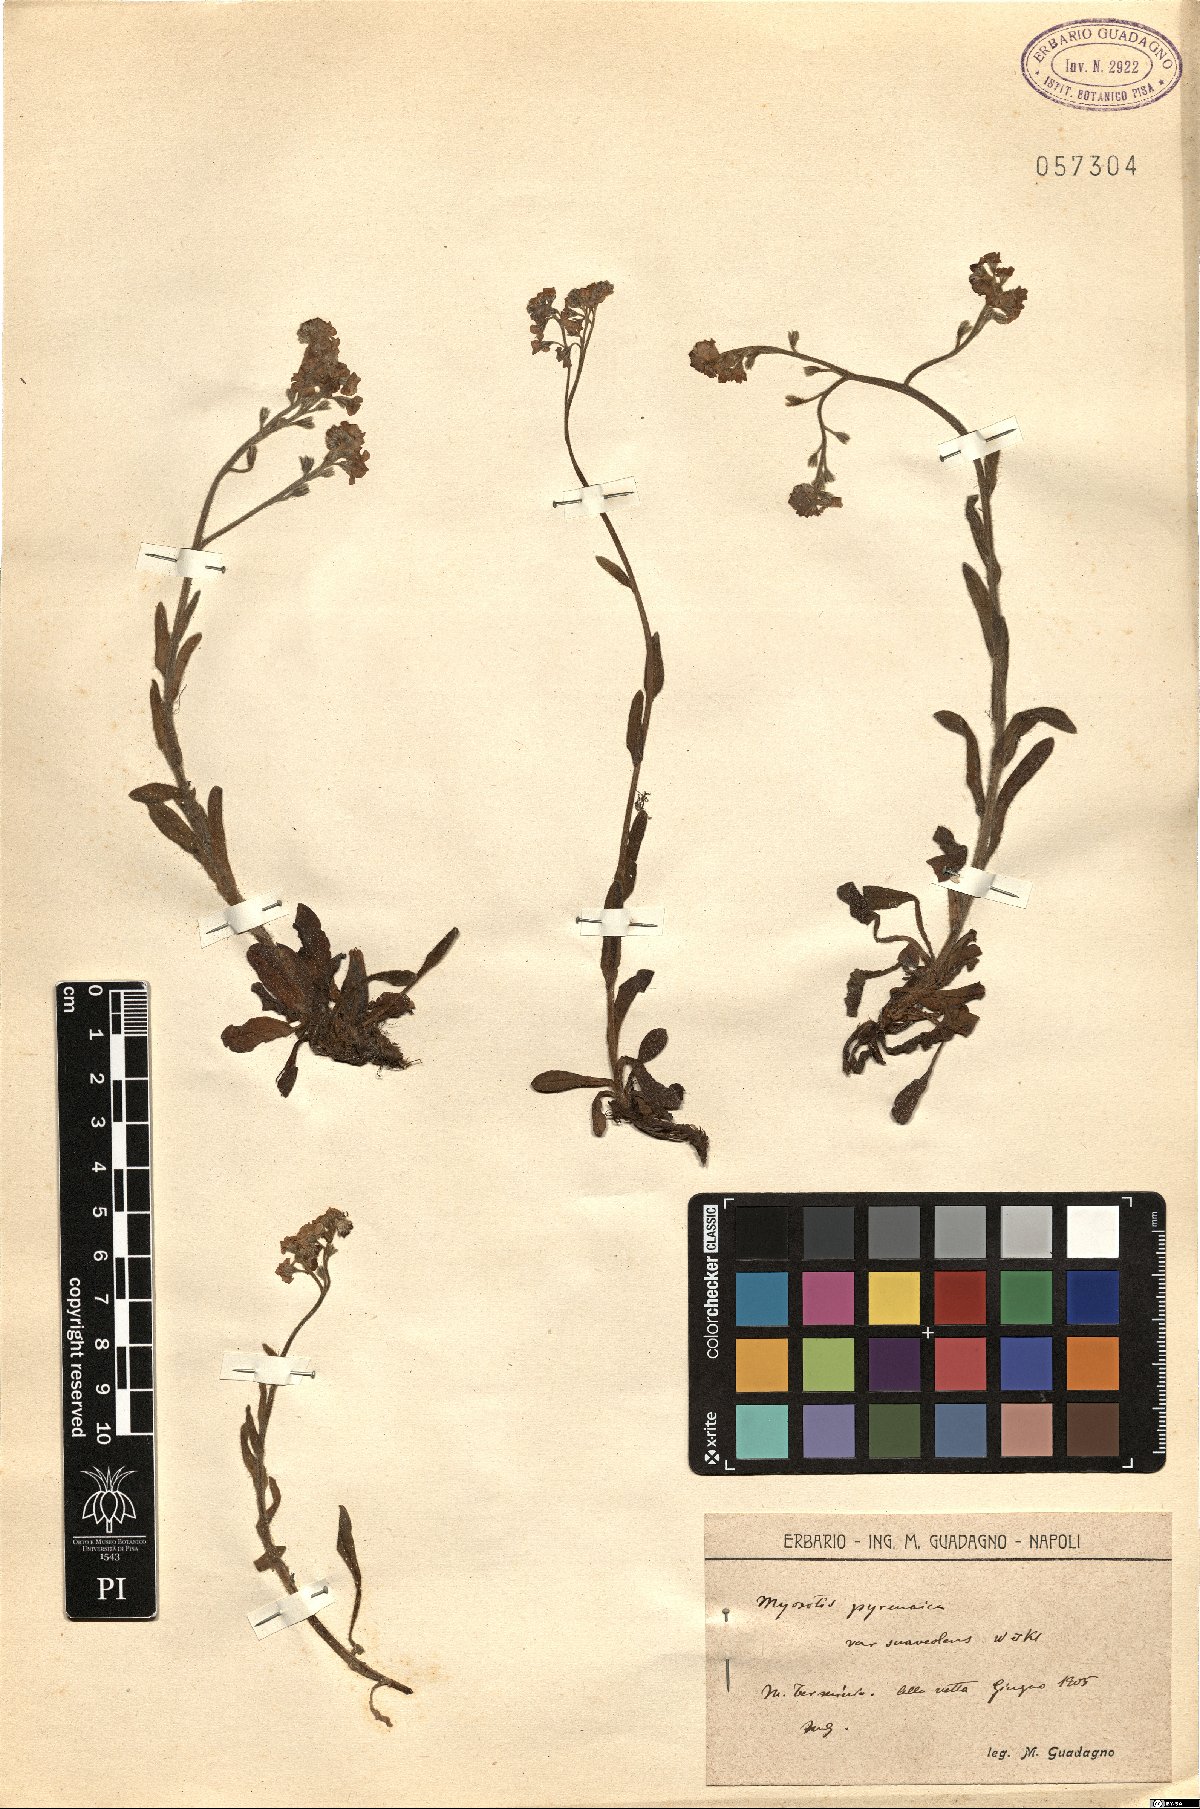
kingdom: Plantae
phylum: Tracheophyta
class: Magnoliopsida
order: Boraginales
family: Boraginaceae
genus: Myosotis
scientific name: Myosotis alpestris
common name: Alpine forget-me-not
